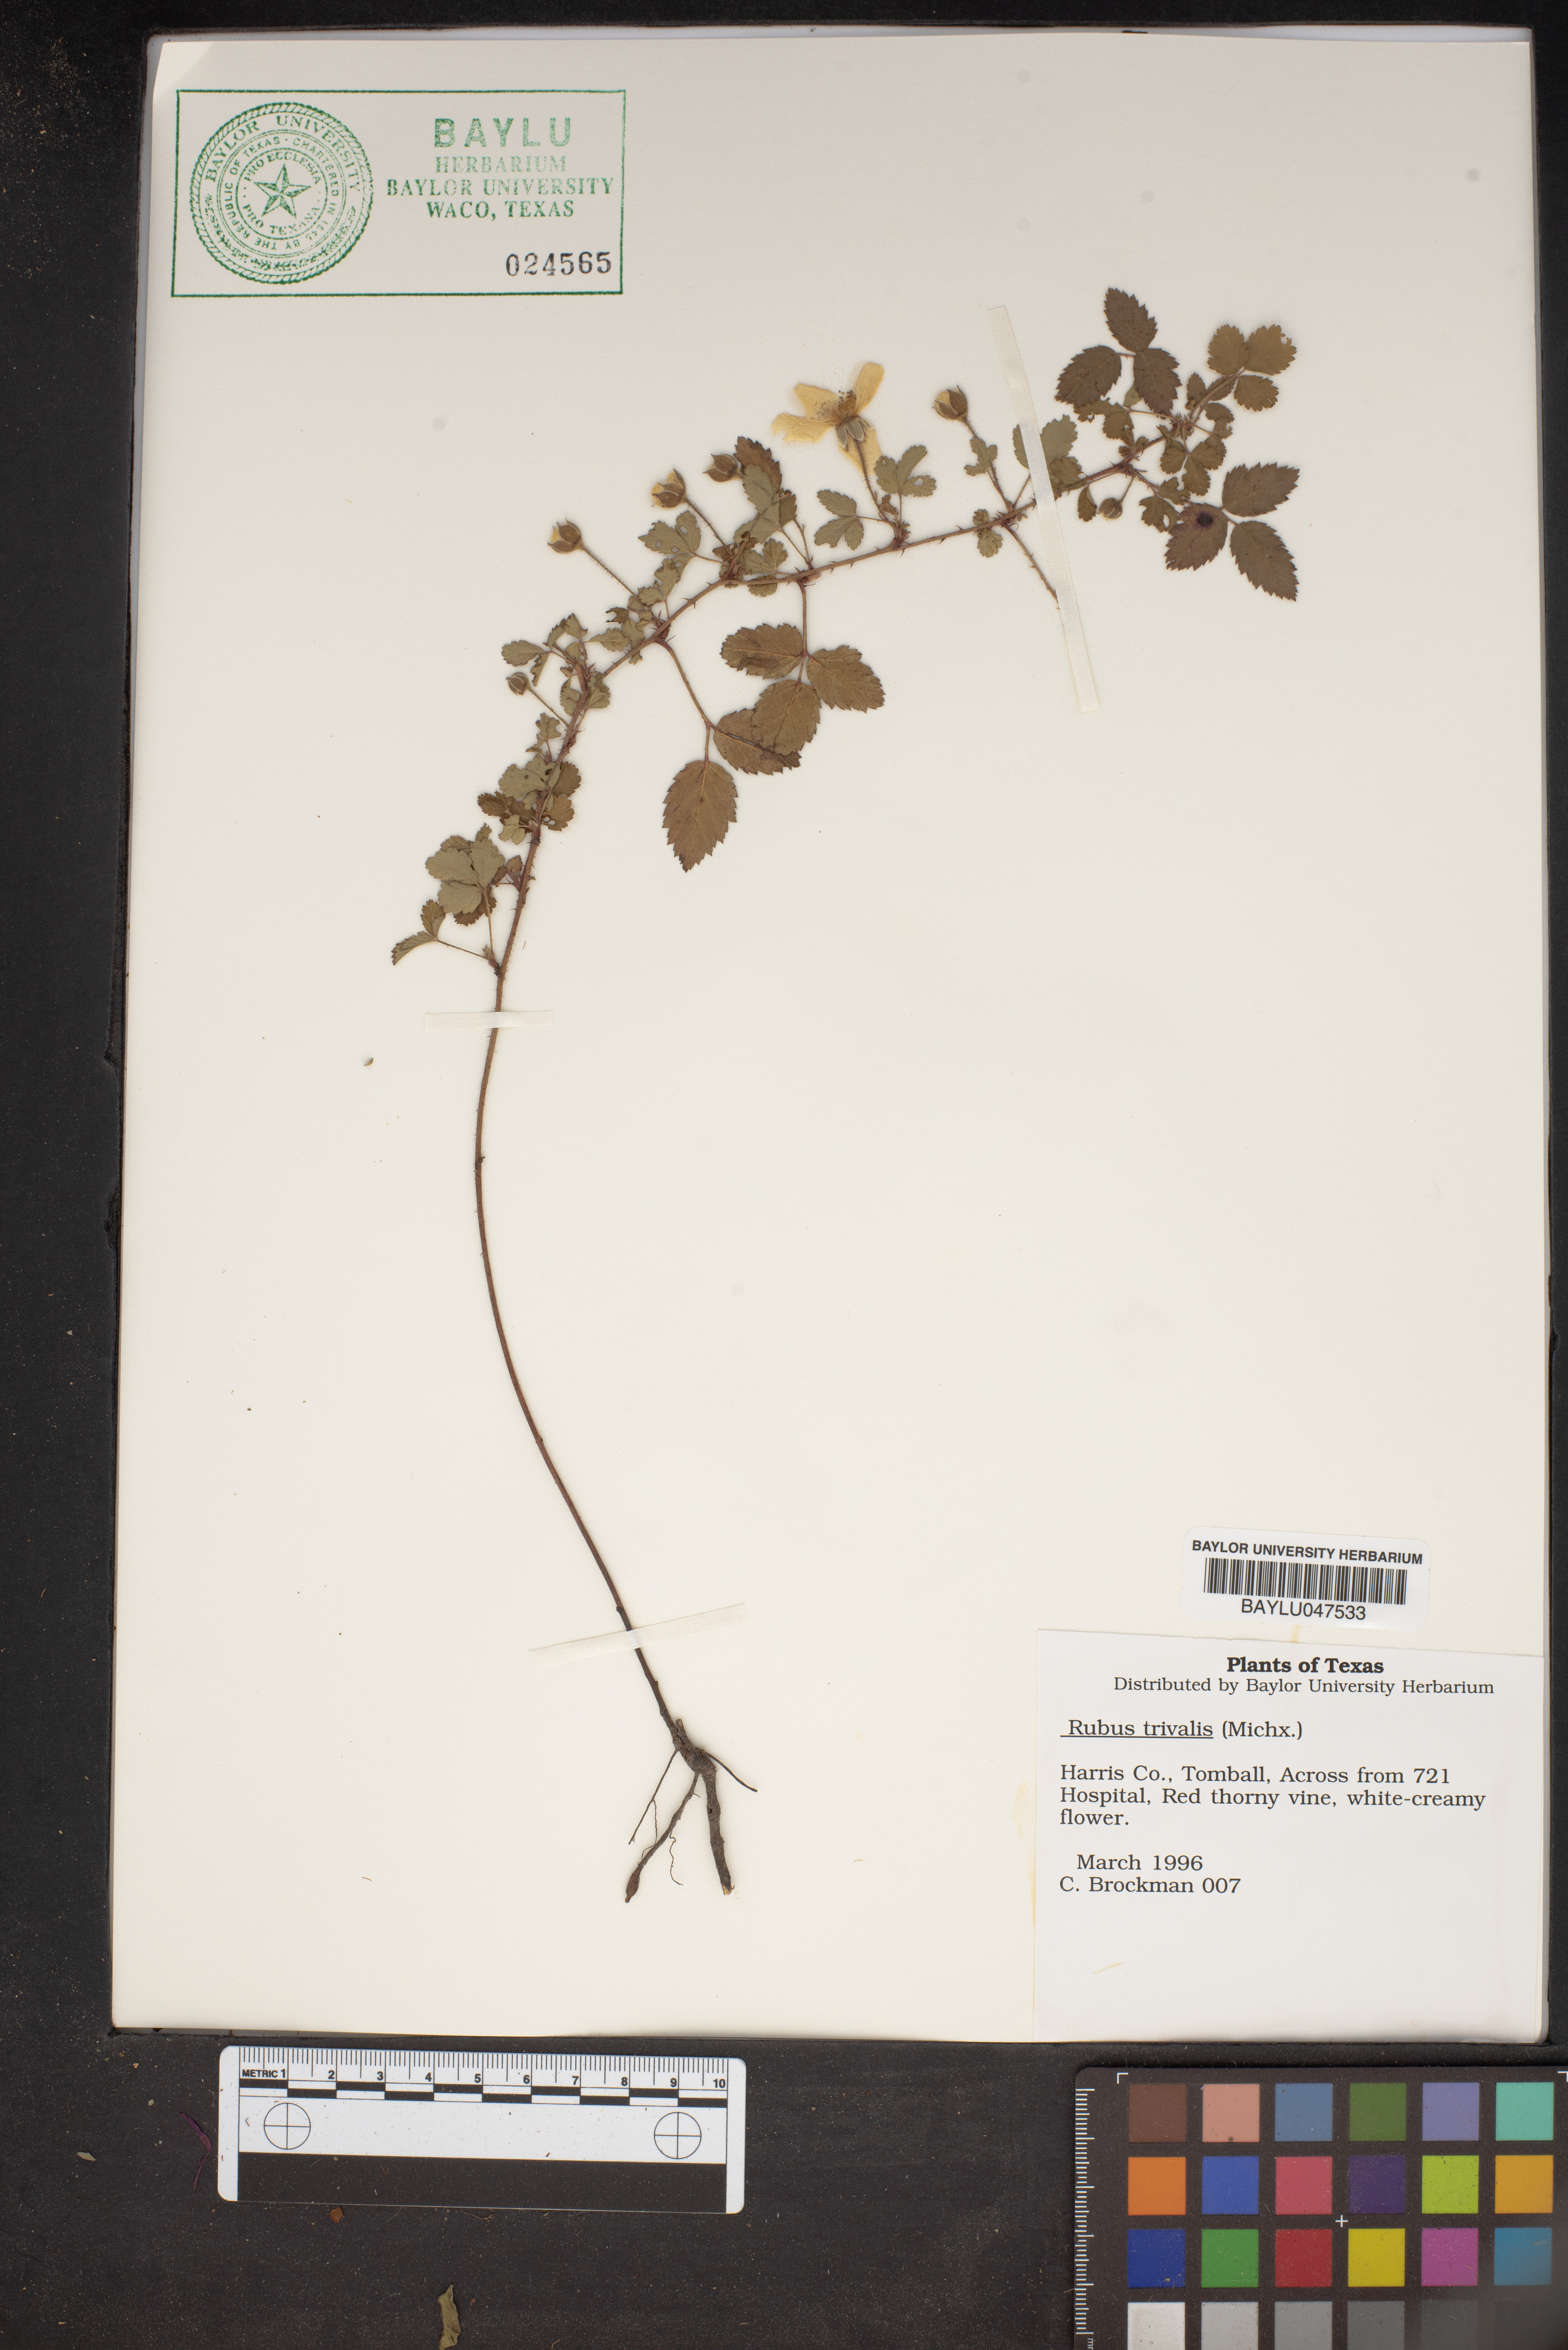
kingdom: Plantae
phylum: Tracheophyta
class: Magnoliopsida
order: Rosales
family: Rosaceae
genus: Rubus
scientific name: Rubus trivialis
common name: Southern dewberry
